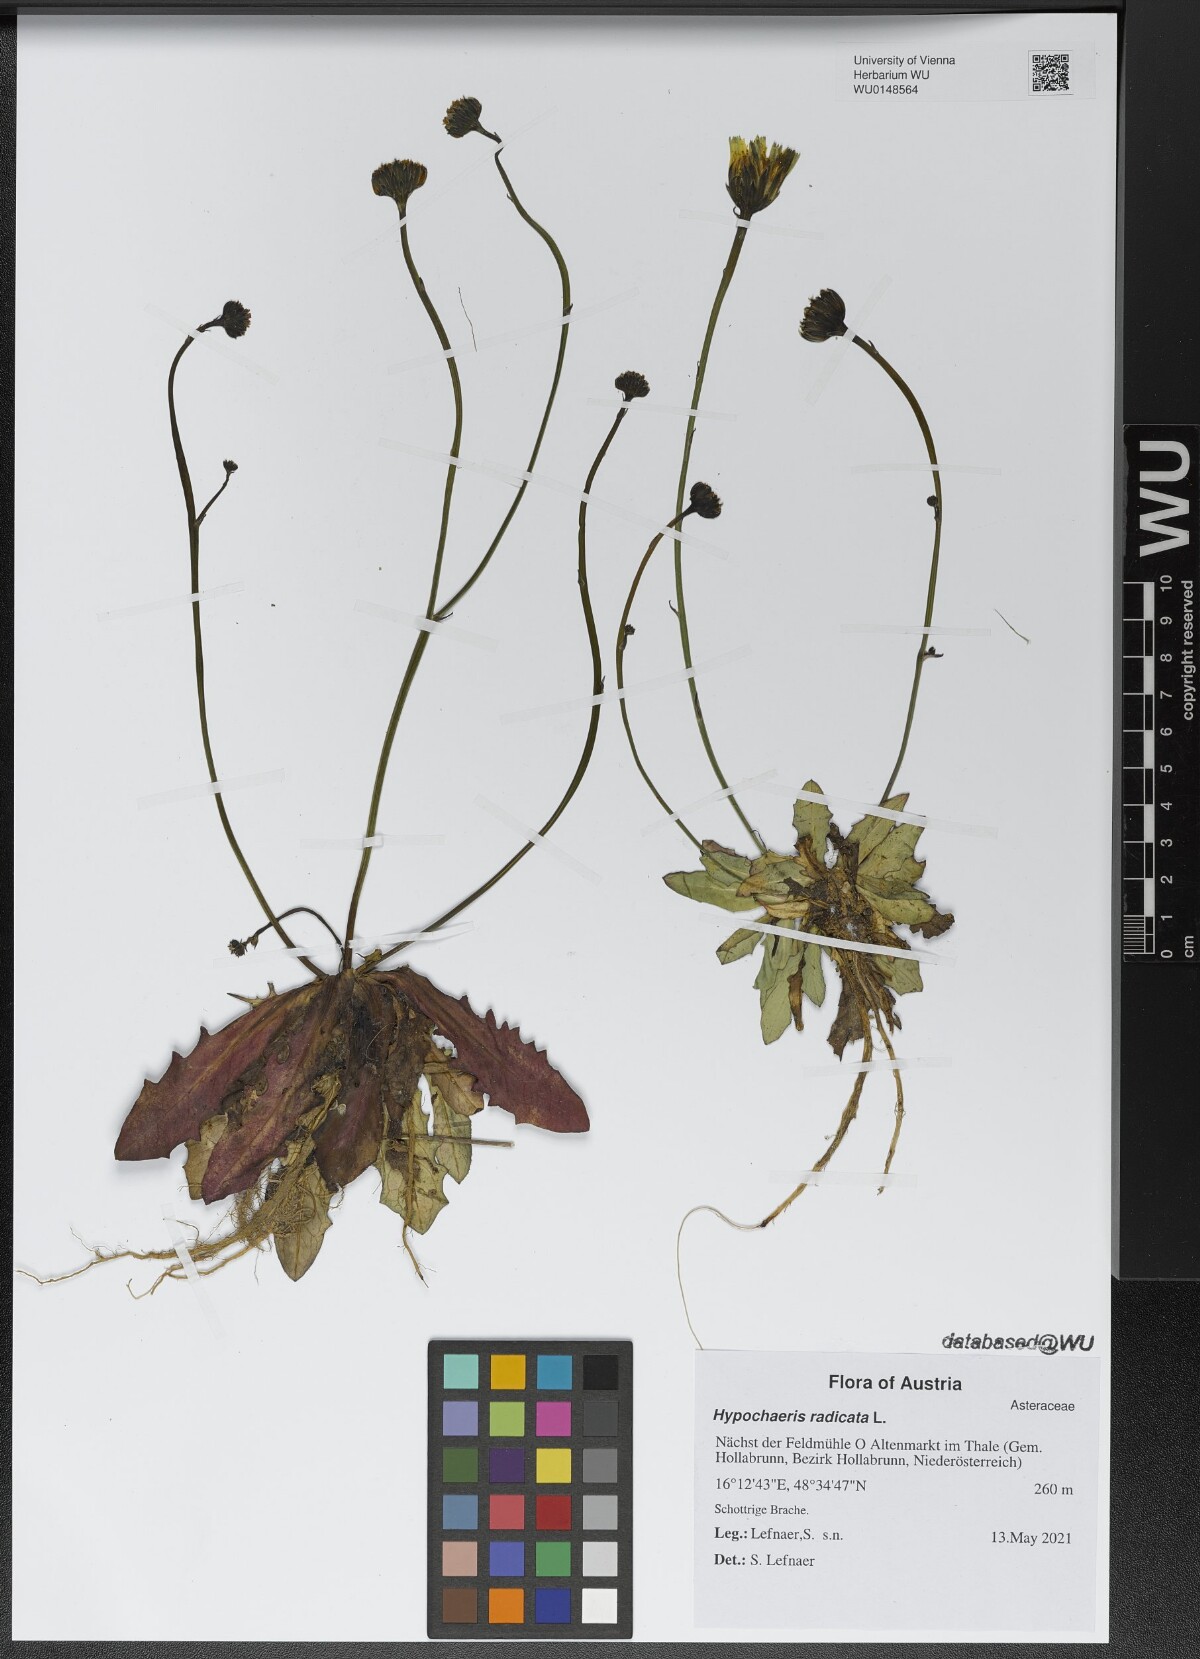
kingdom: Plantae
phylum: Tracheophyta
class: Magnoliopsida
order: Asterales
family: Asteraceae
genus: Hypochaeris
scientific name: Hypochaeris radicata
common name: Flatweed
